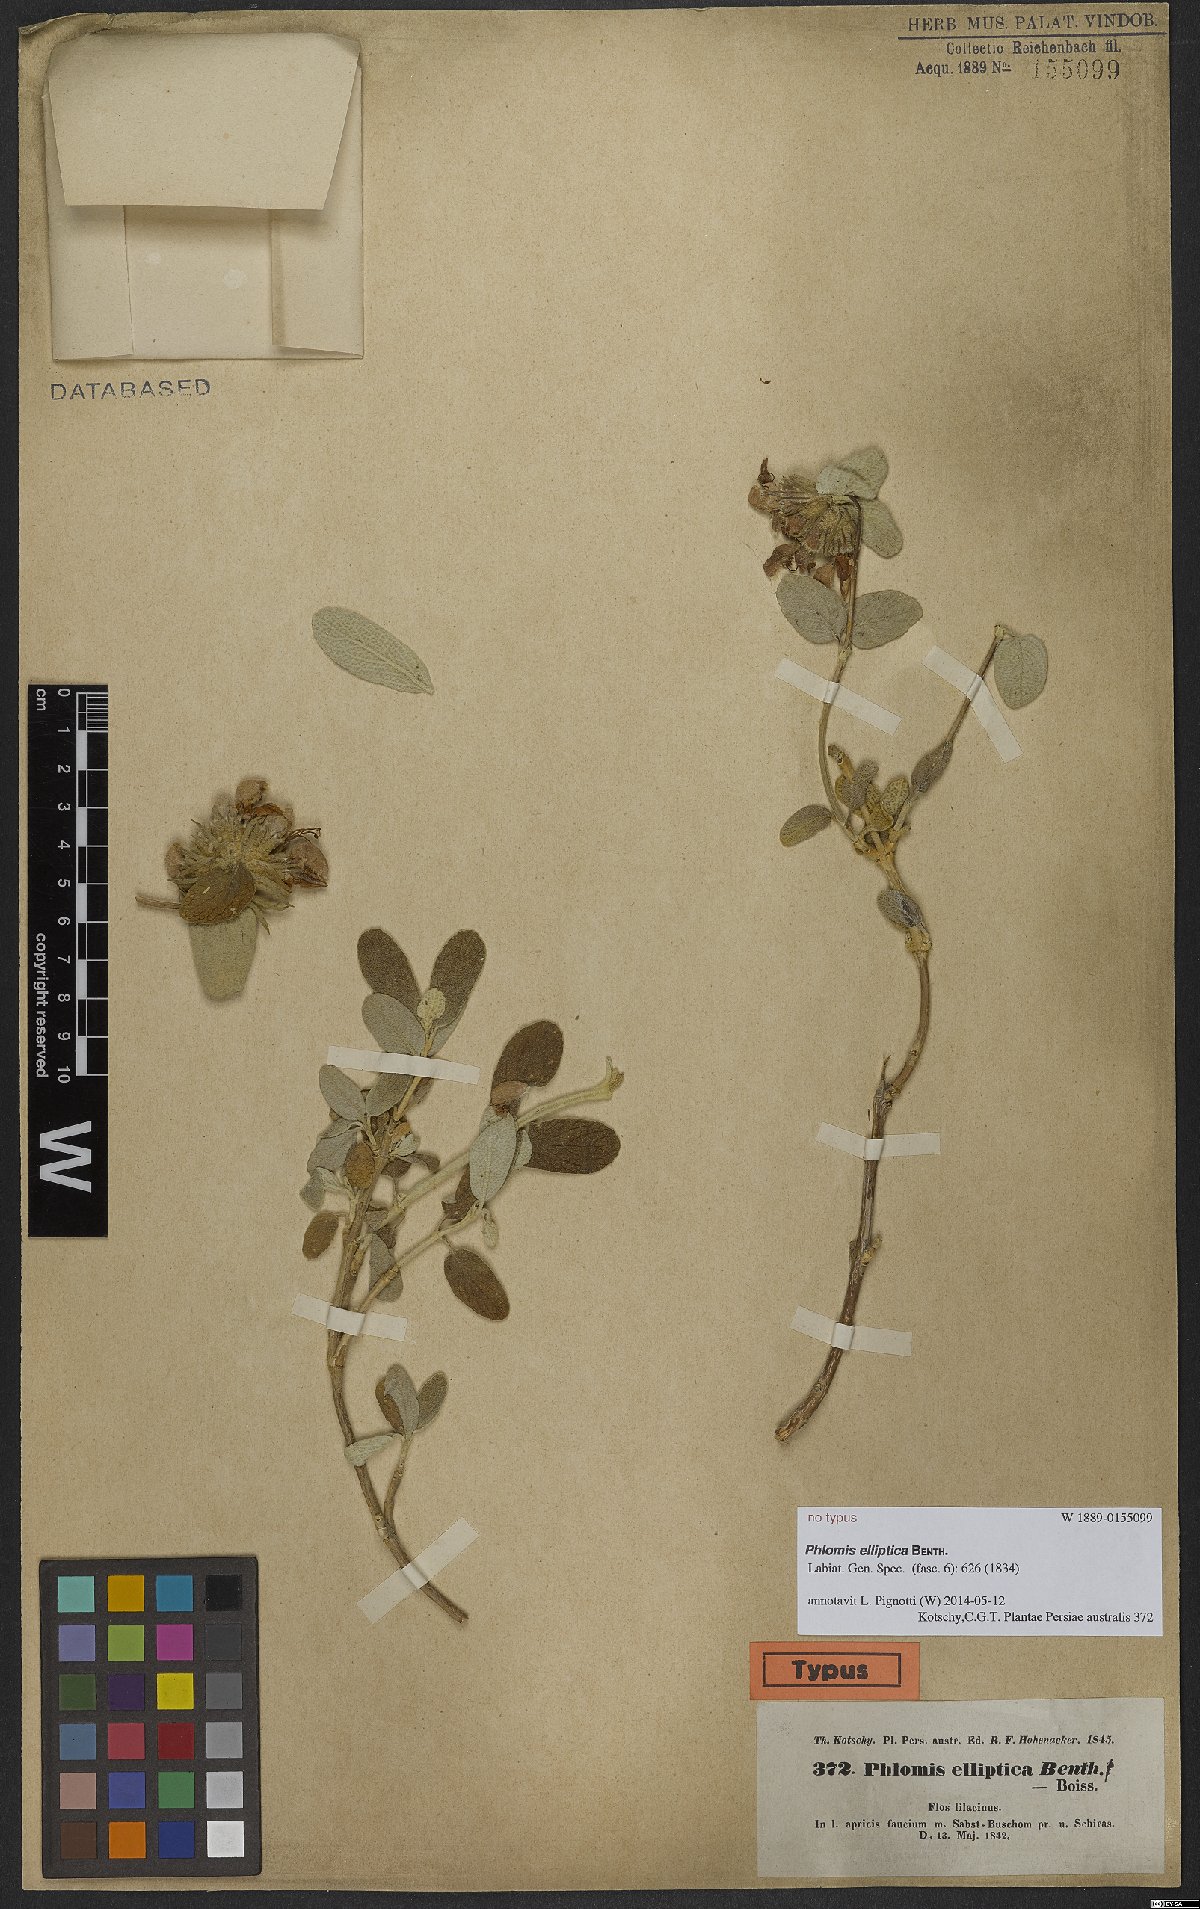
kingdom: Plantae
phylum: Tracheophyta
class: Magnoliopsida
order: Lamiales
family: Lamiaceae
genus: Phlomis
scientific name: Phlomis elliptica
